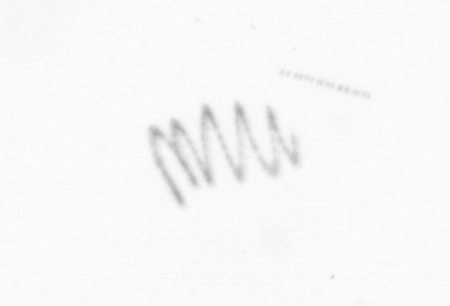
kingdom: Chromista
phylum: Ochrophyta
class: Bacillariophyceae
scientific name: Bacillariophyceae
